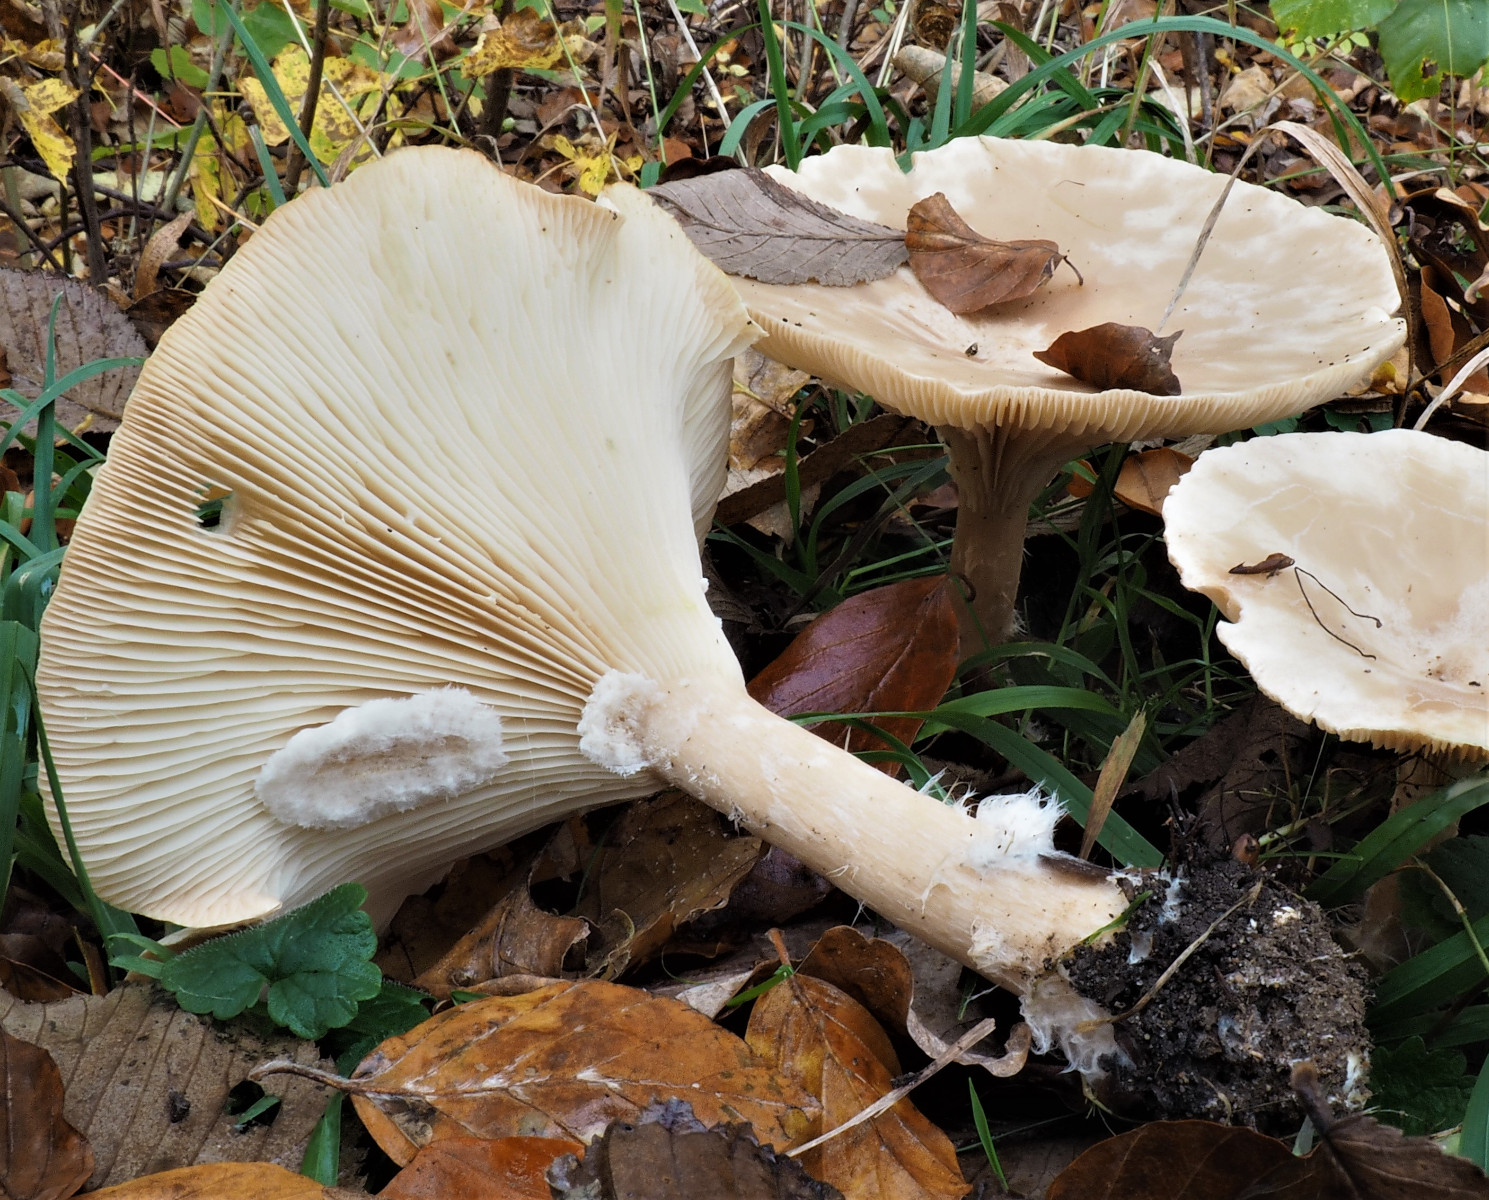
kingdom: Fungi
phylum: Basidiomycota
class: Agaricomycetes
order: Agaricales
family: Tricholomataceae
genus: Infundibulicybe
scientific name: Infundibulicybe geotropa
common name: stor tragthat
